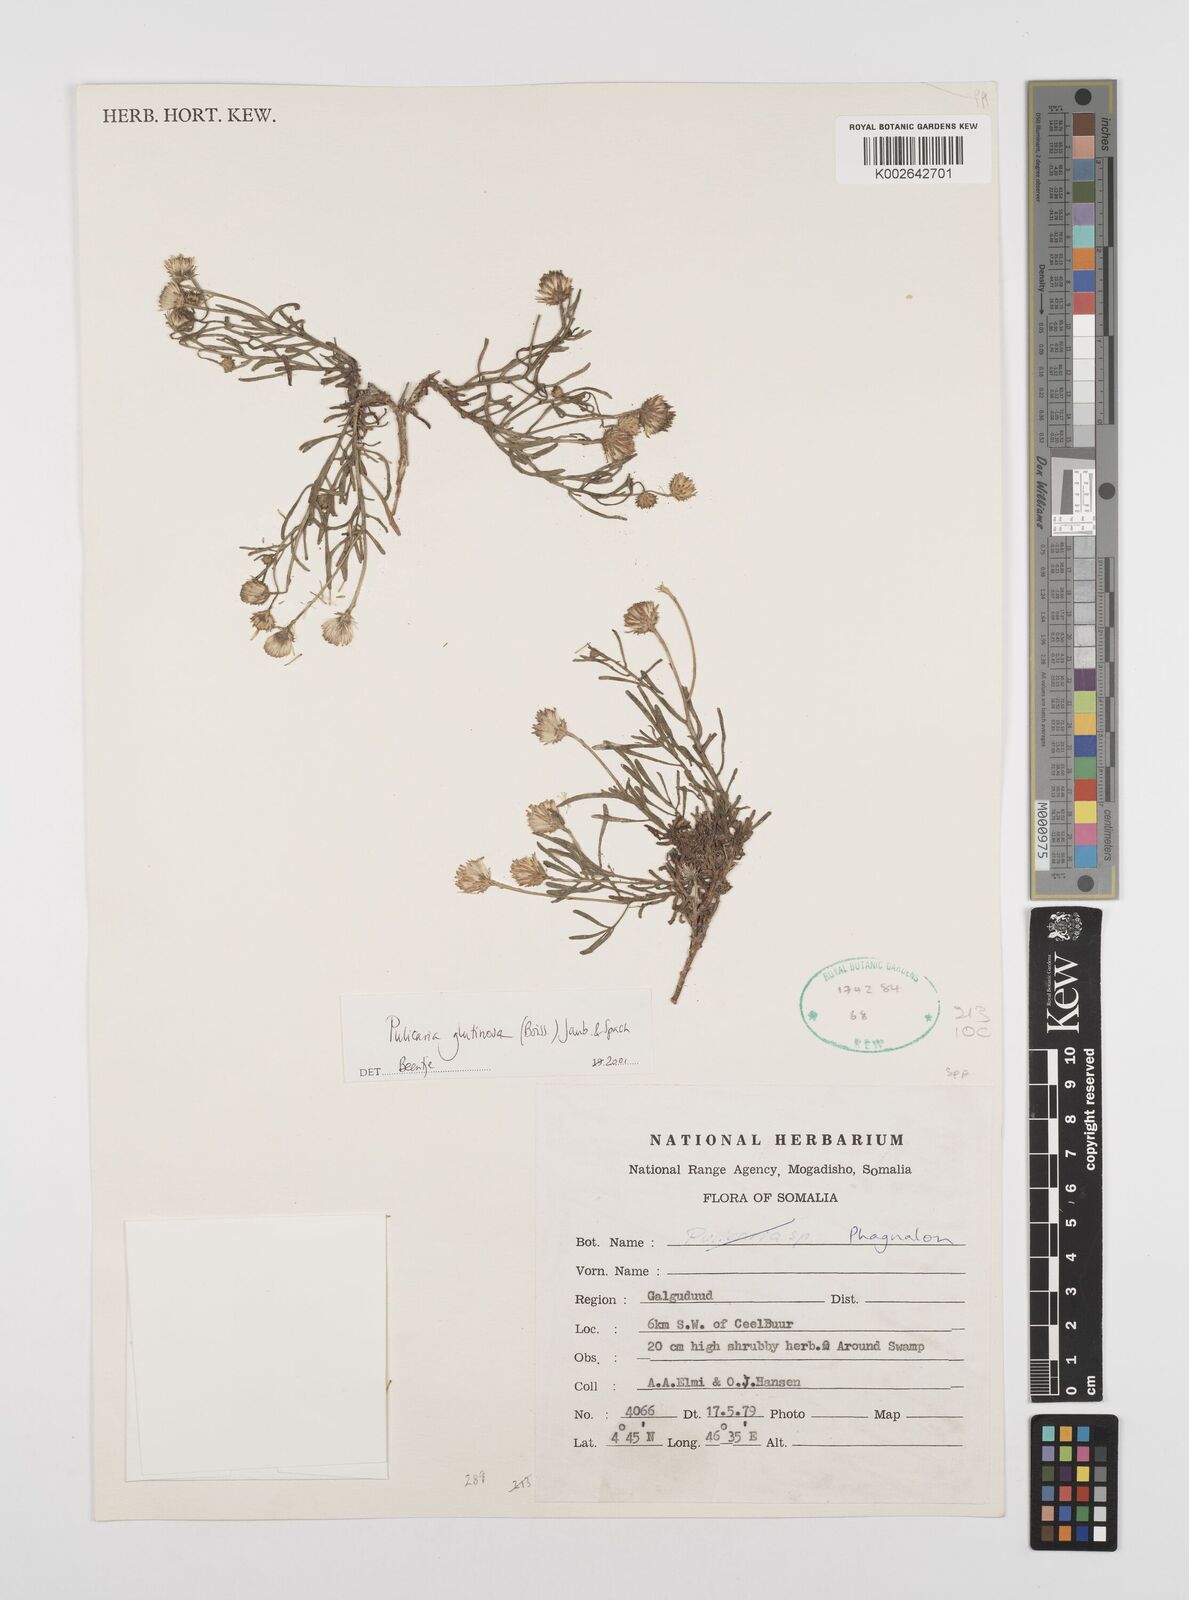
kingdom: Plantae
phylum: Tracheophyta
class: Magnoliopsida
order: Asterales
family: Asteraceae
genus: Pulicaria
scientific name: Pulicaria glutinosa
